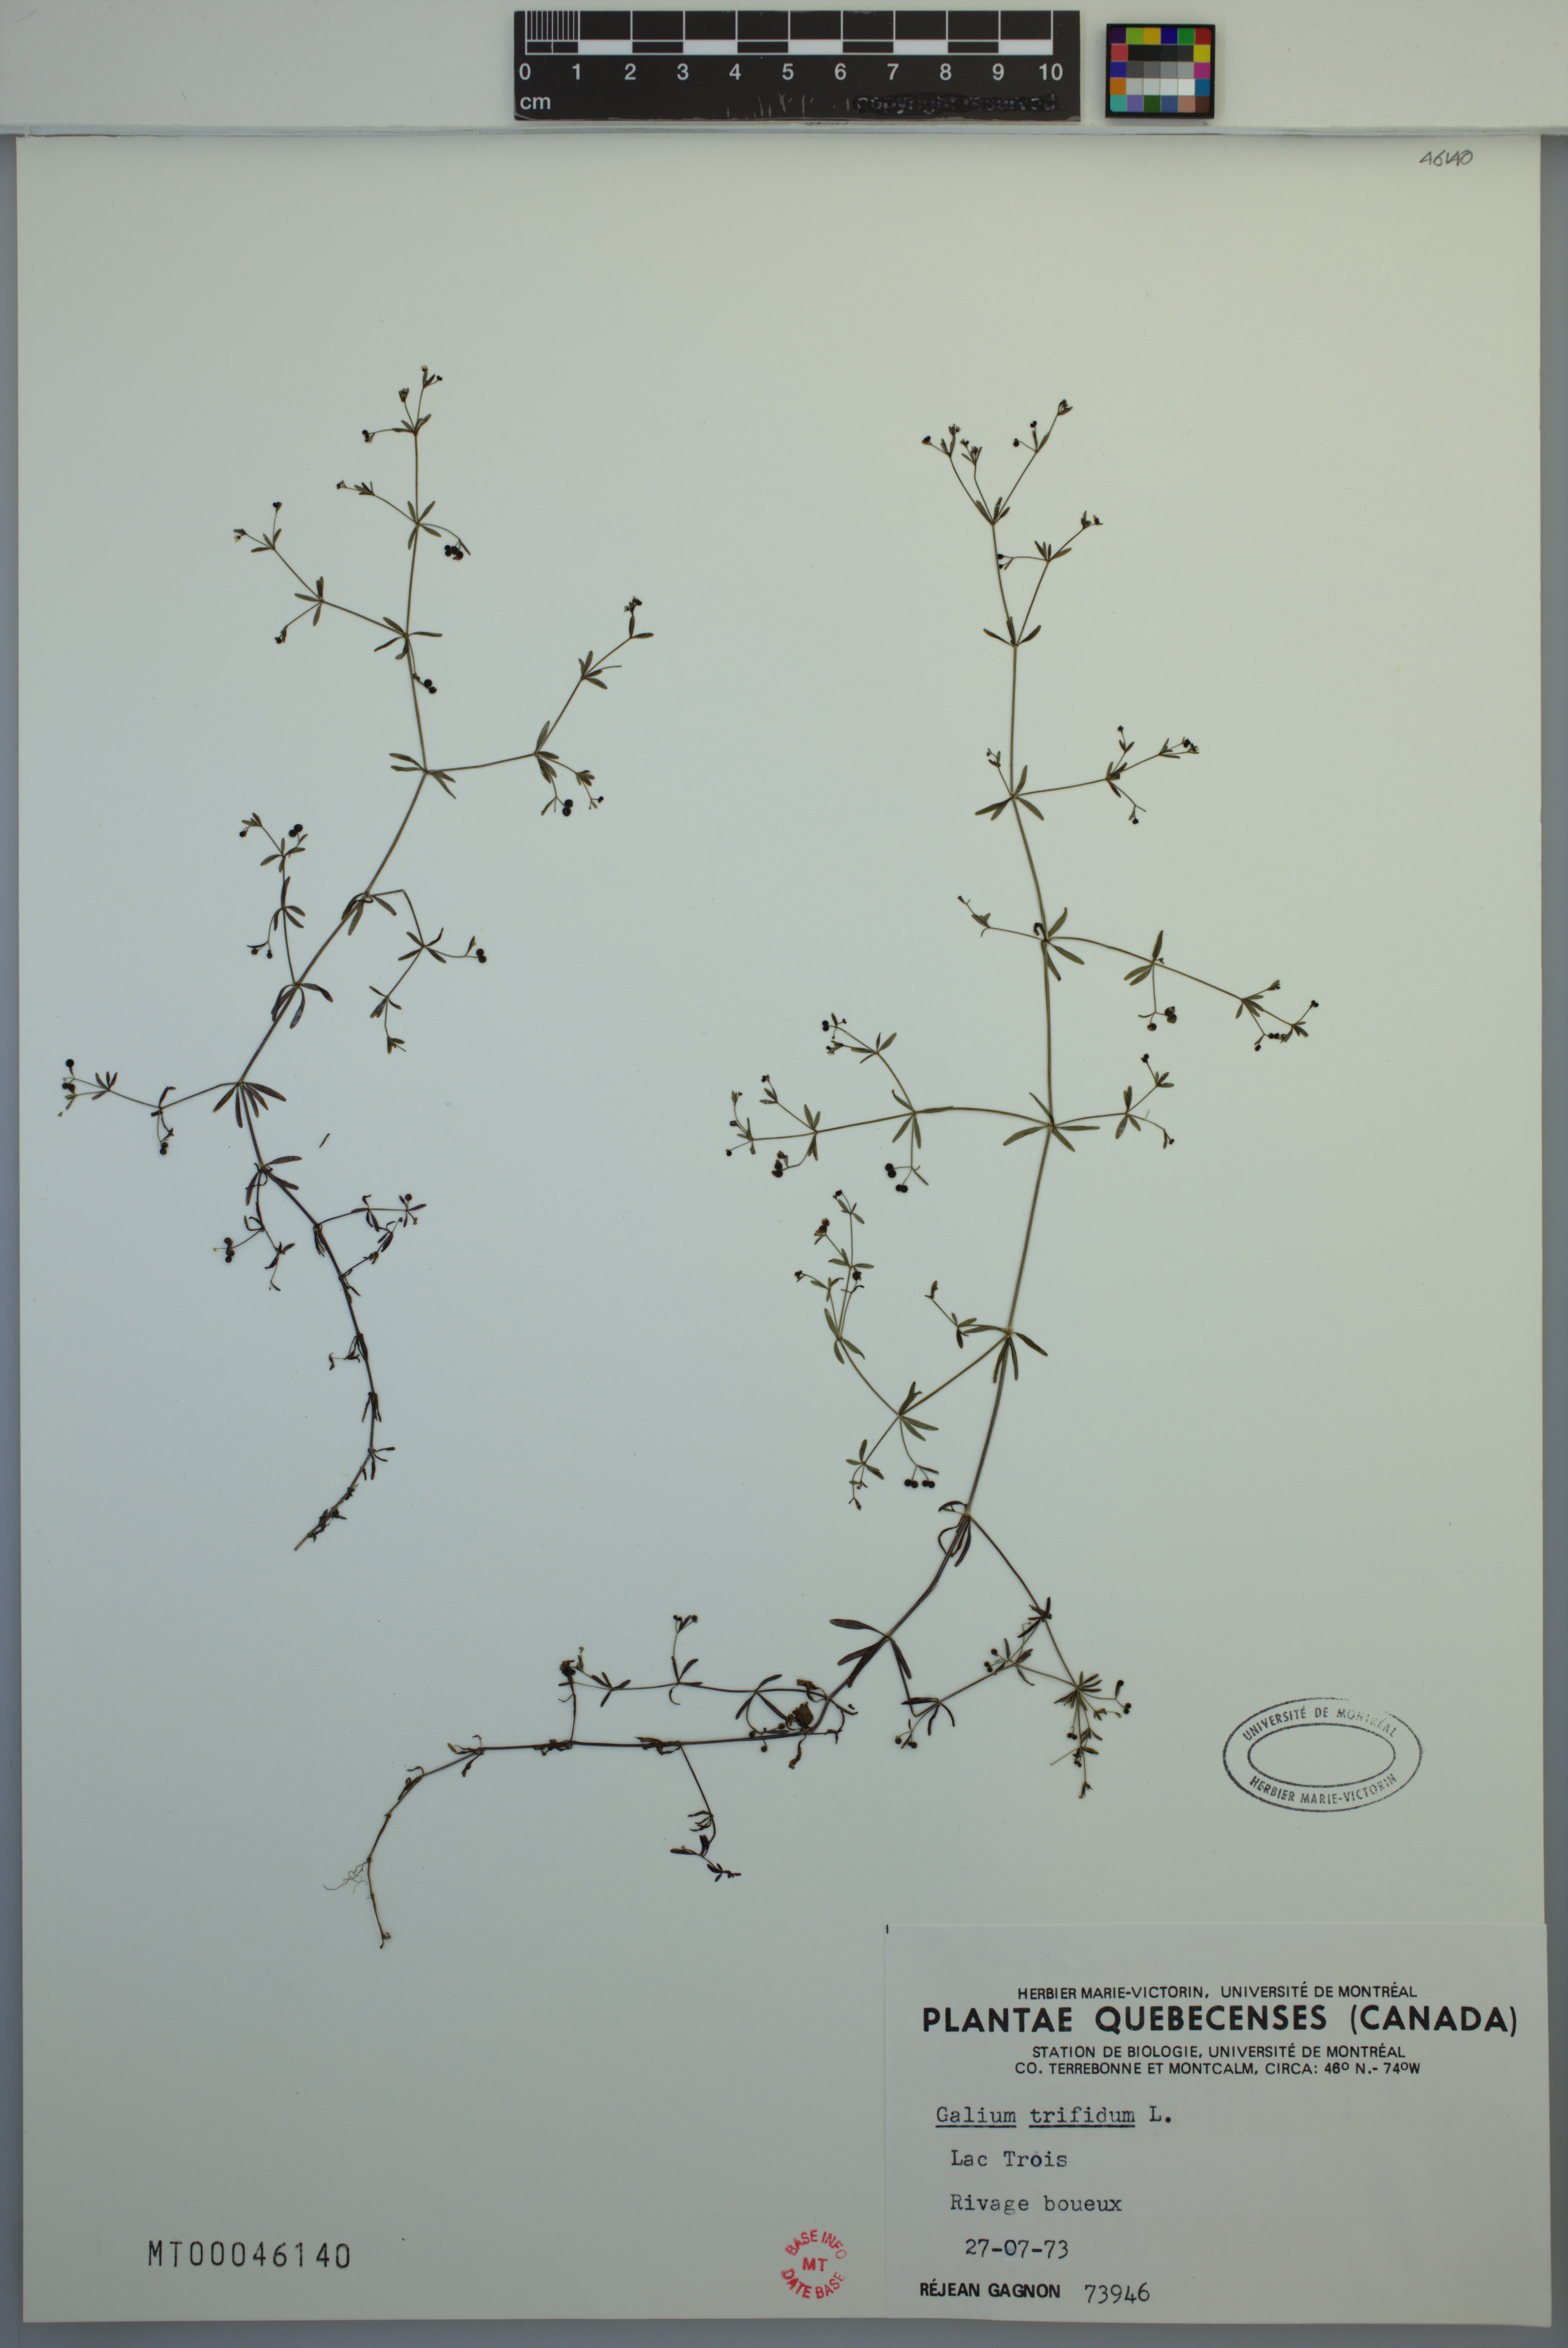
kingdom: Plantae
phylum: Tracheophyta
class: Magnoliopsida
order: Gentianales
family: Rubiaceae
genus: Galium
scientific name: Galium trifidum
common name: Small bedstraw
